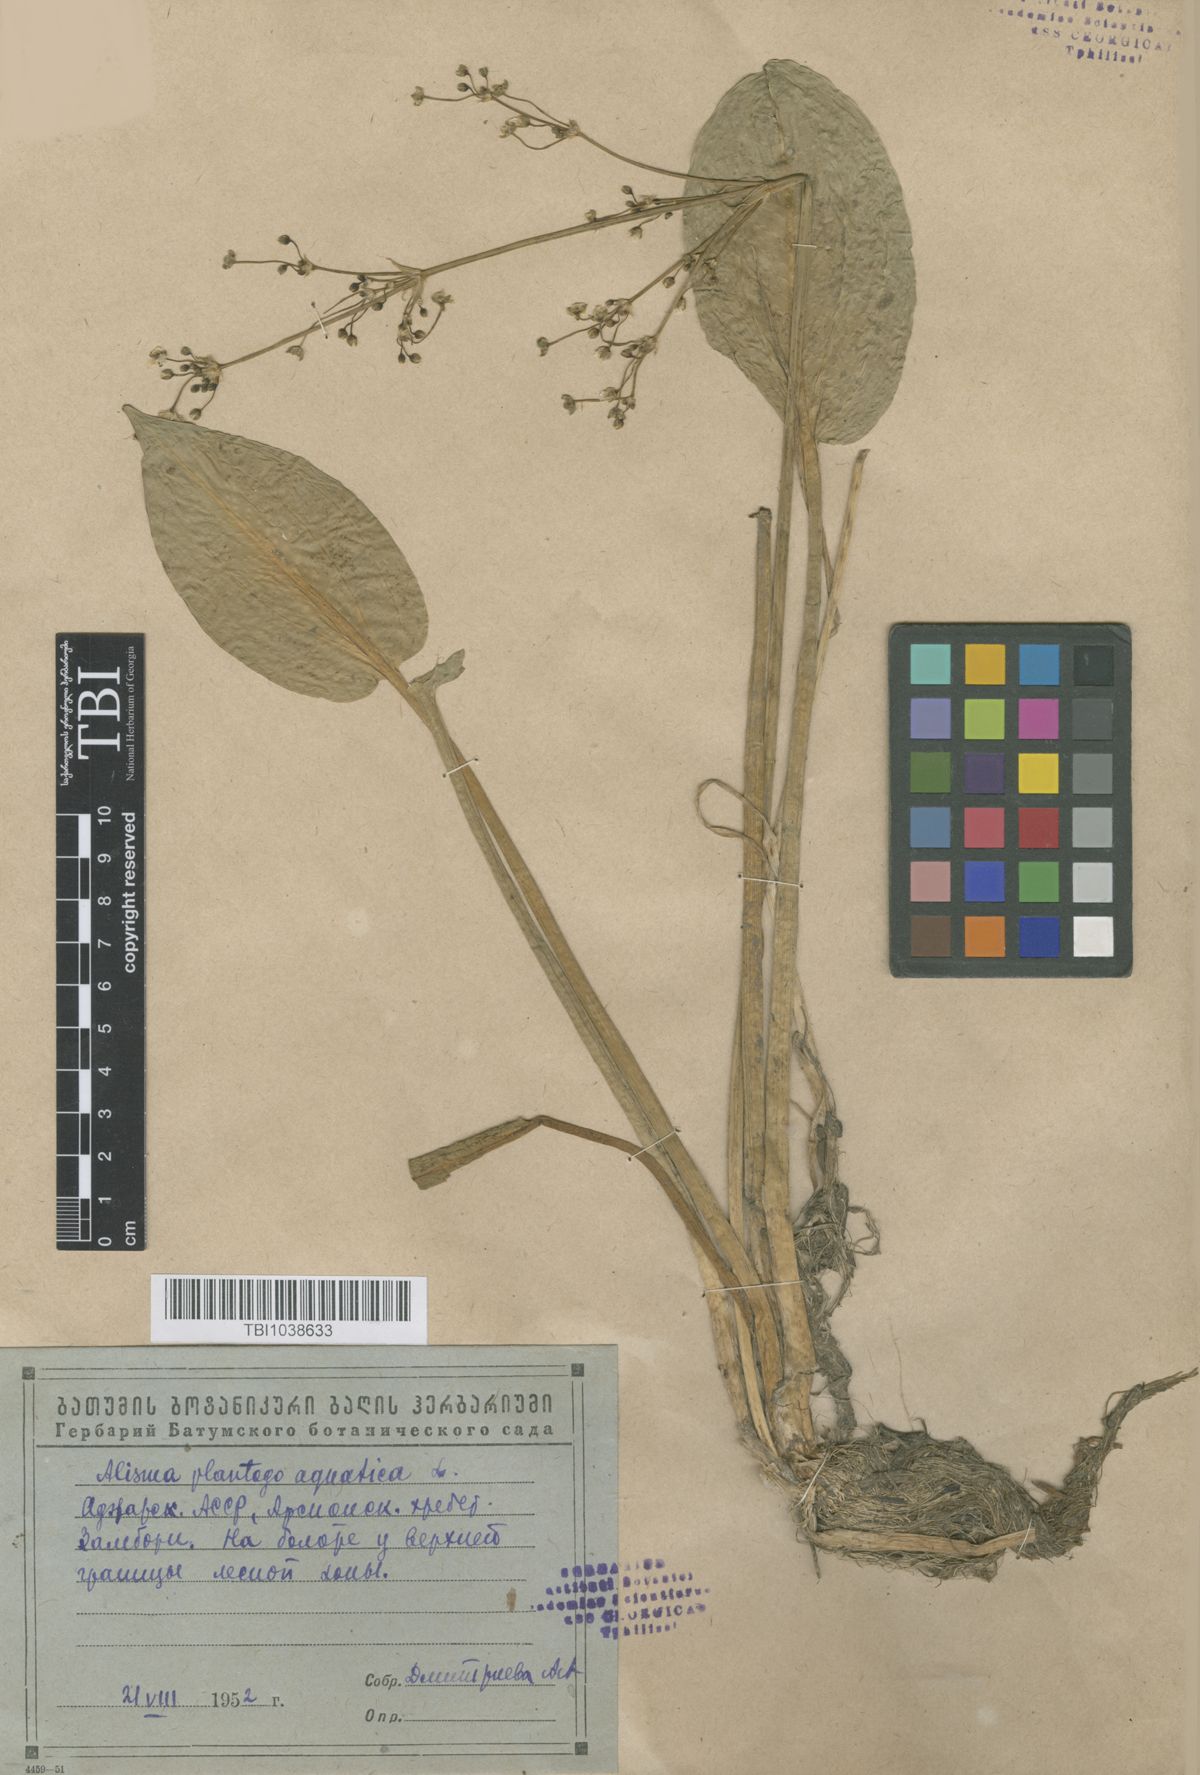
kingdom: Plantae
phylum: Tracheophyta
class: Liliopsida
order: Alismatales
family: Alismataceae
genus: Alisma
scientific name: Alisma plantago-aquatica
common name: Water-plantain
